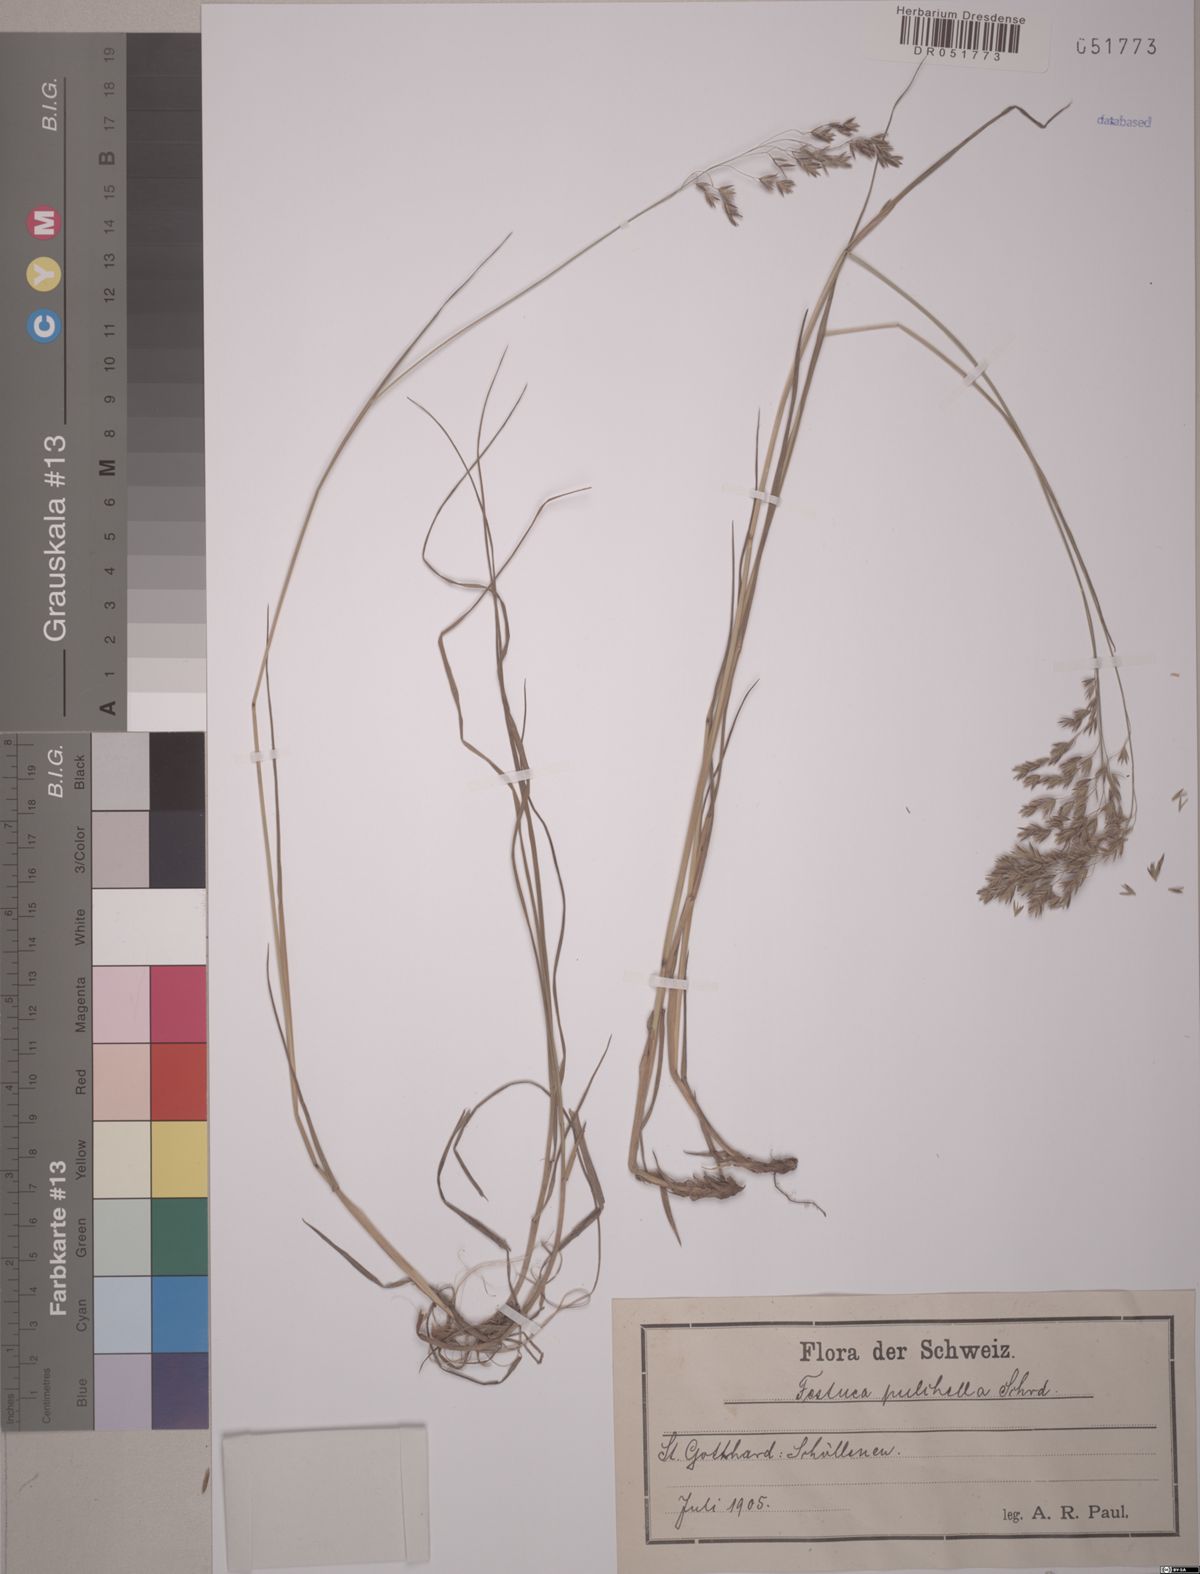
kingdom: Plantae
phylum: Tracheophyta
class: Liliopsida
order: Poales
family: Poaceae
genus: Festuca
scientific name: Festuca pulchella
